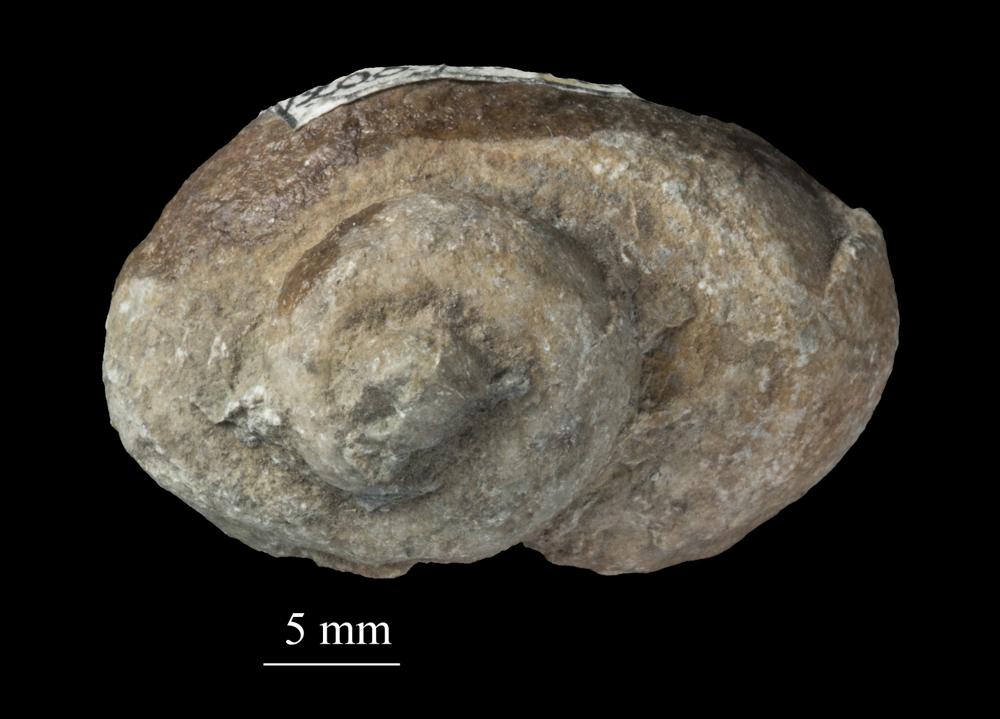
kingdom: Animalia
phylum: Mollusca
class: Gastropoda
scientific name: Gastropoda
